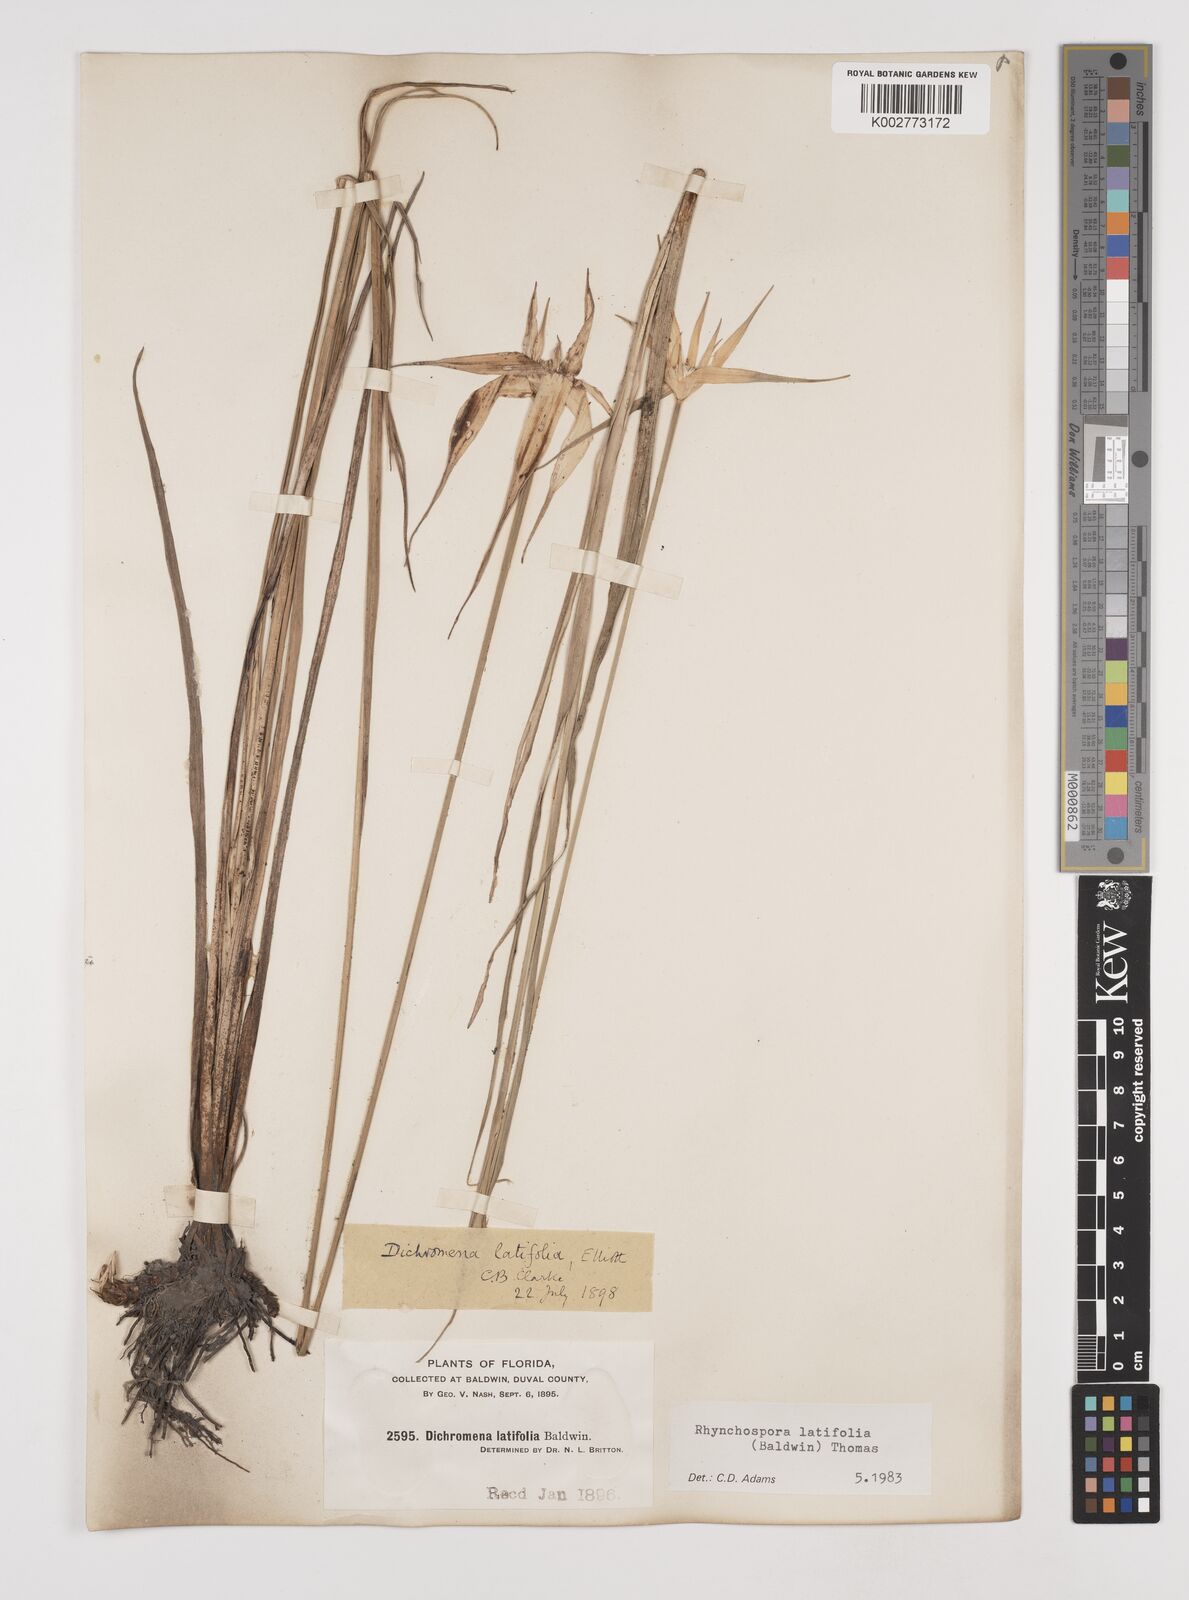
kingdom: Plantae
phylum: Tracheophyta
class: Liliopsida
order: Poales
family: Cyperaceae
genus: Rhynchospora
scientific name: Rhynchospora colorata
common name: Star sedge
